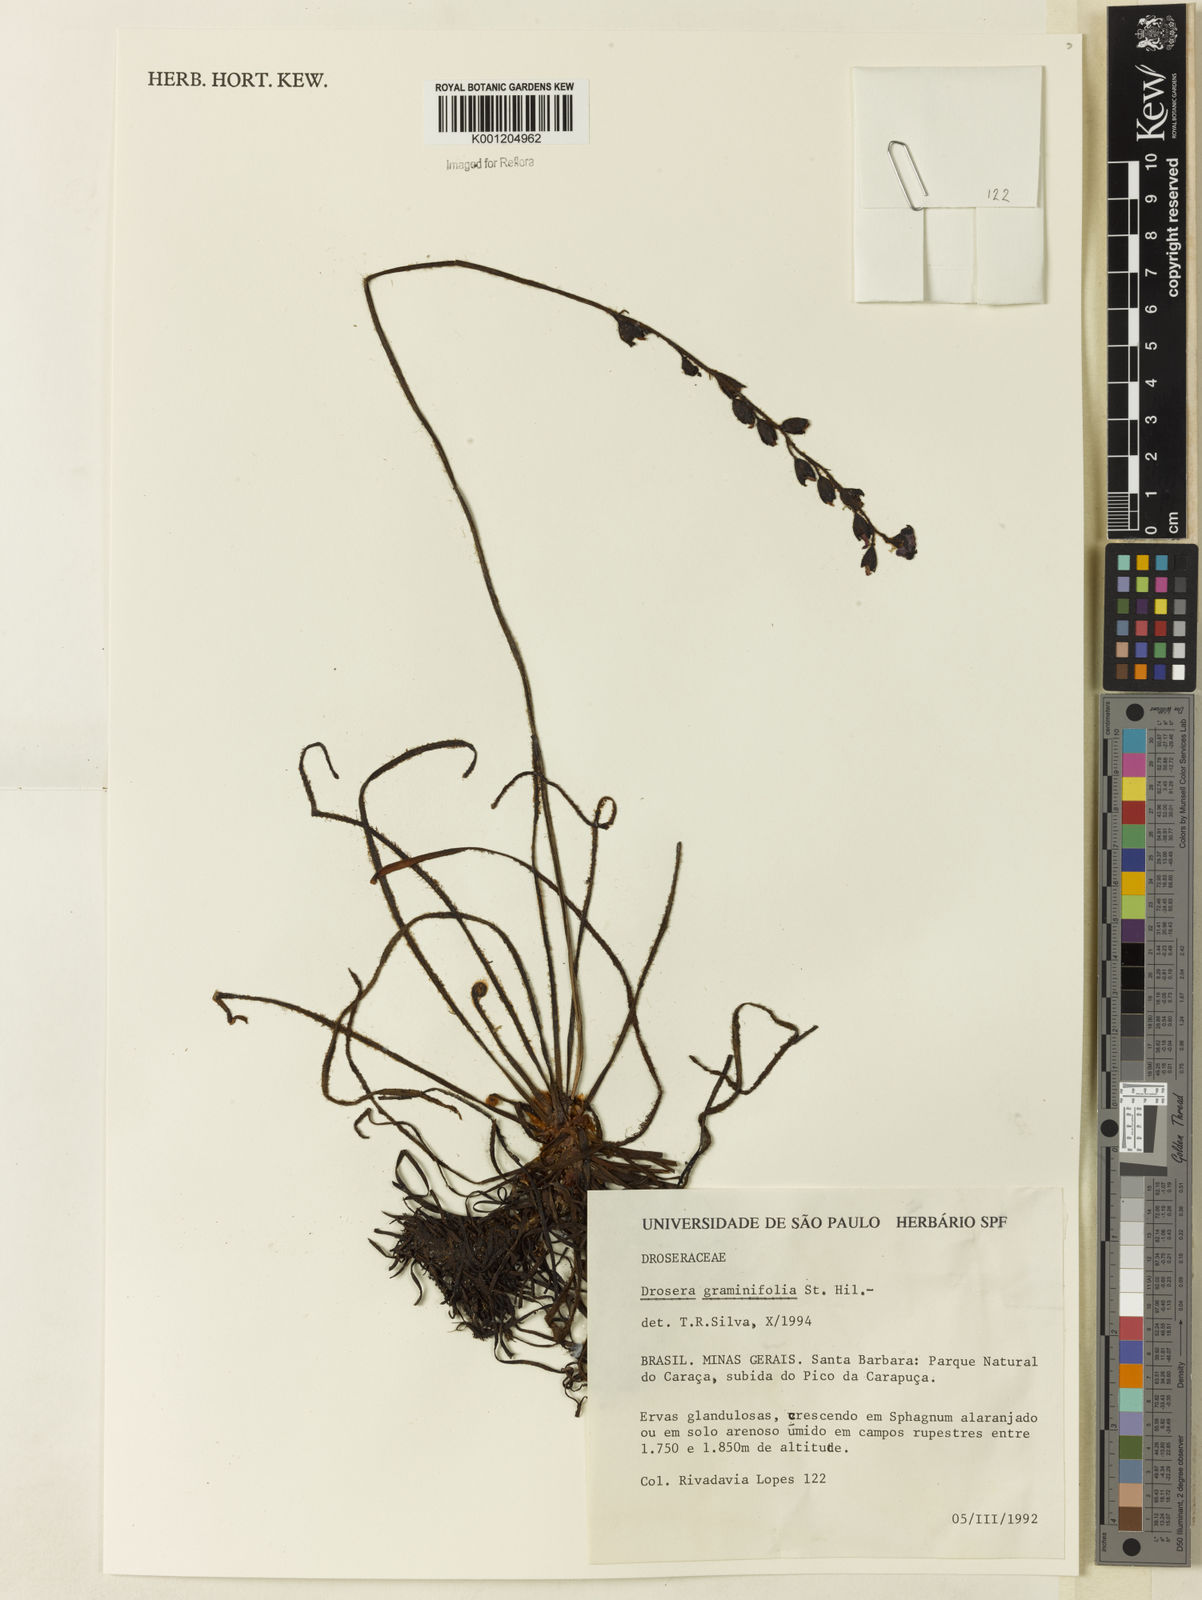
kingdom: Plantae
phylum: Tracheophyta
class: Magnoliopsida
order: Caryophyllales
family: Droseraceae
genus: Drosera
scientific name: Drosera graminifolia
